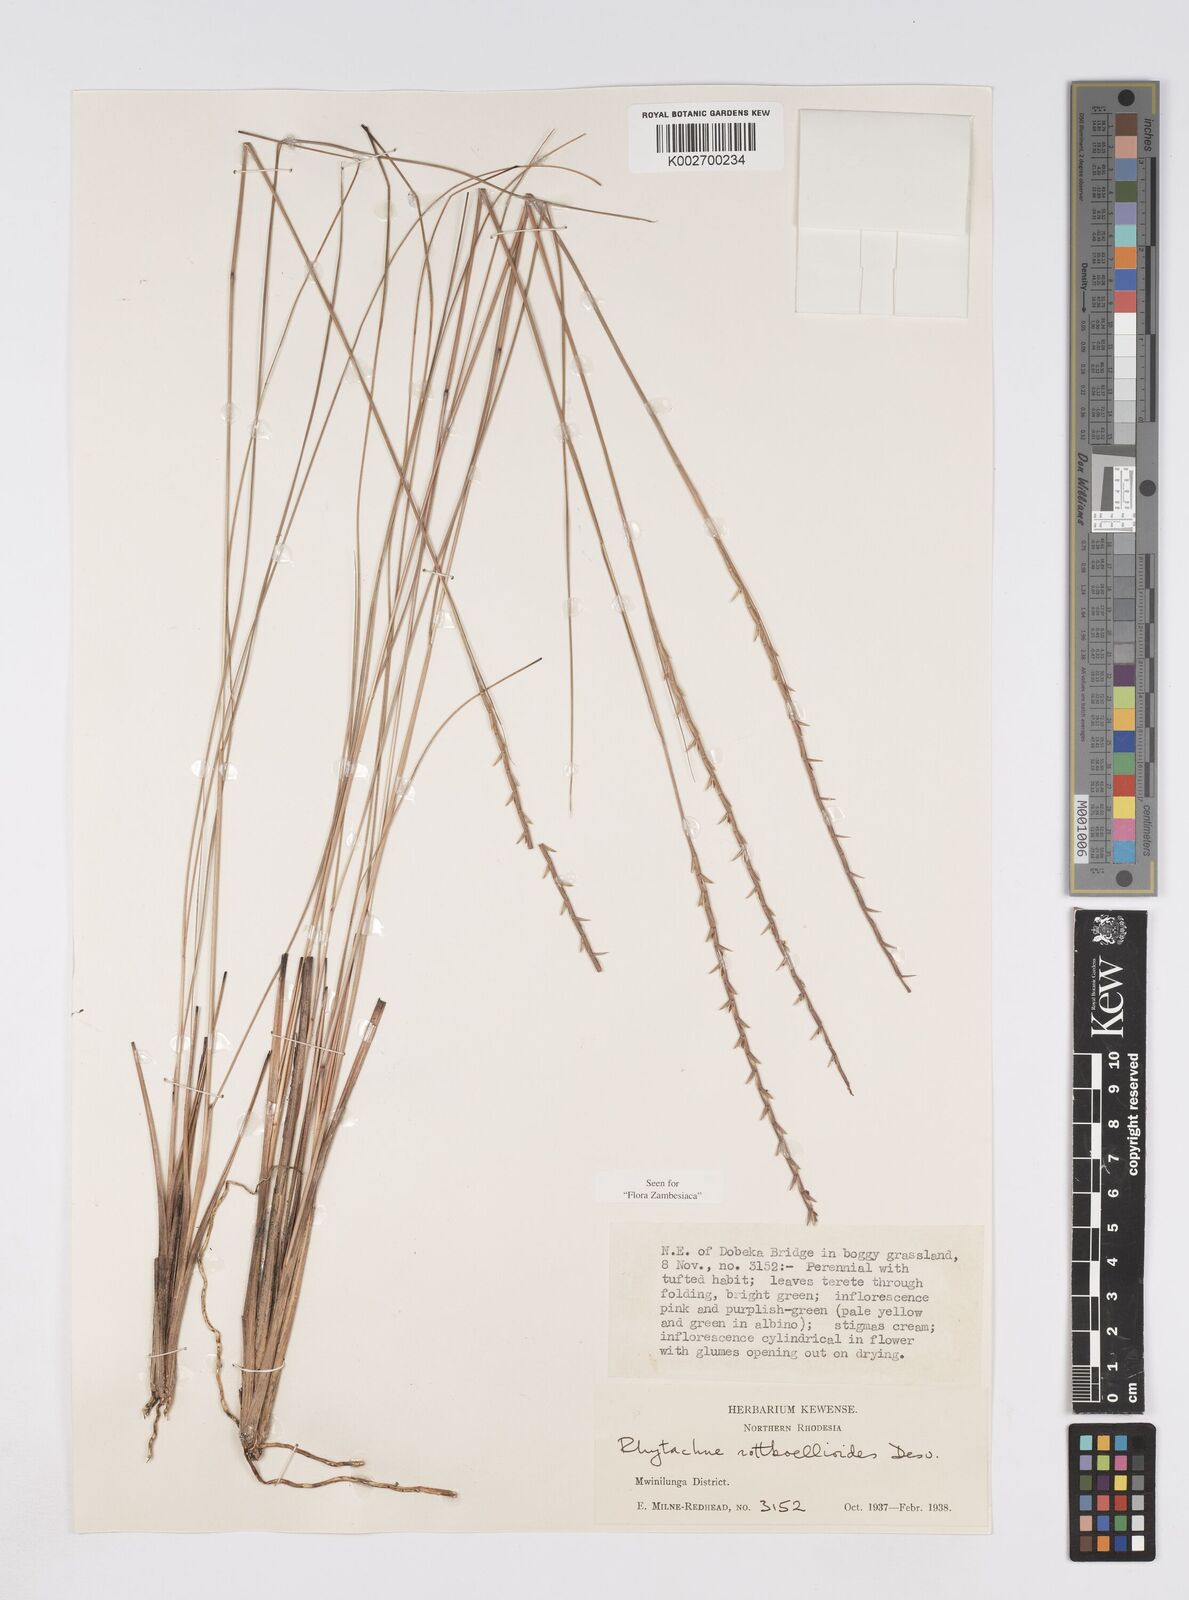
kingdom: Plantae
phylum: Tracheophyta
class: Liliopsida
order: Poales
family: Poaceae
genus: Rhytachne
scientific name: Rhytachne rottboellioides
